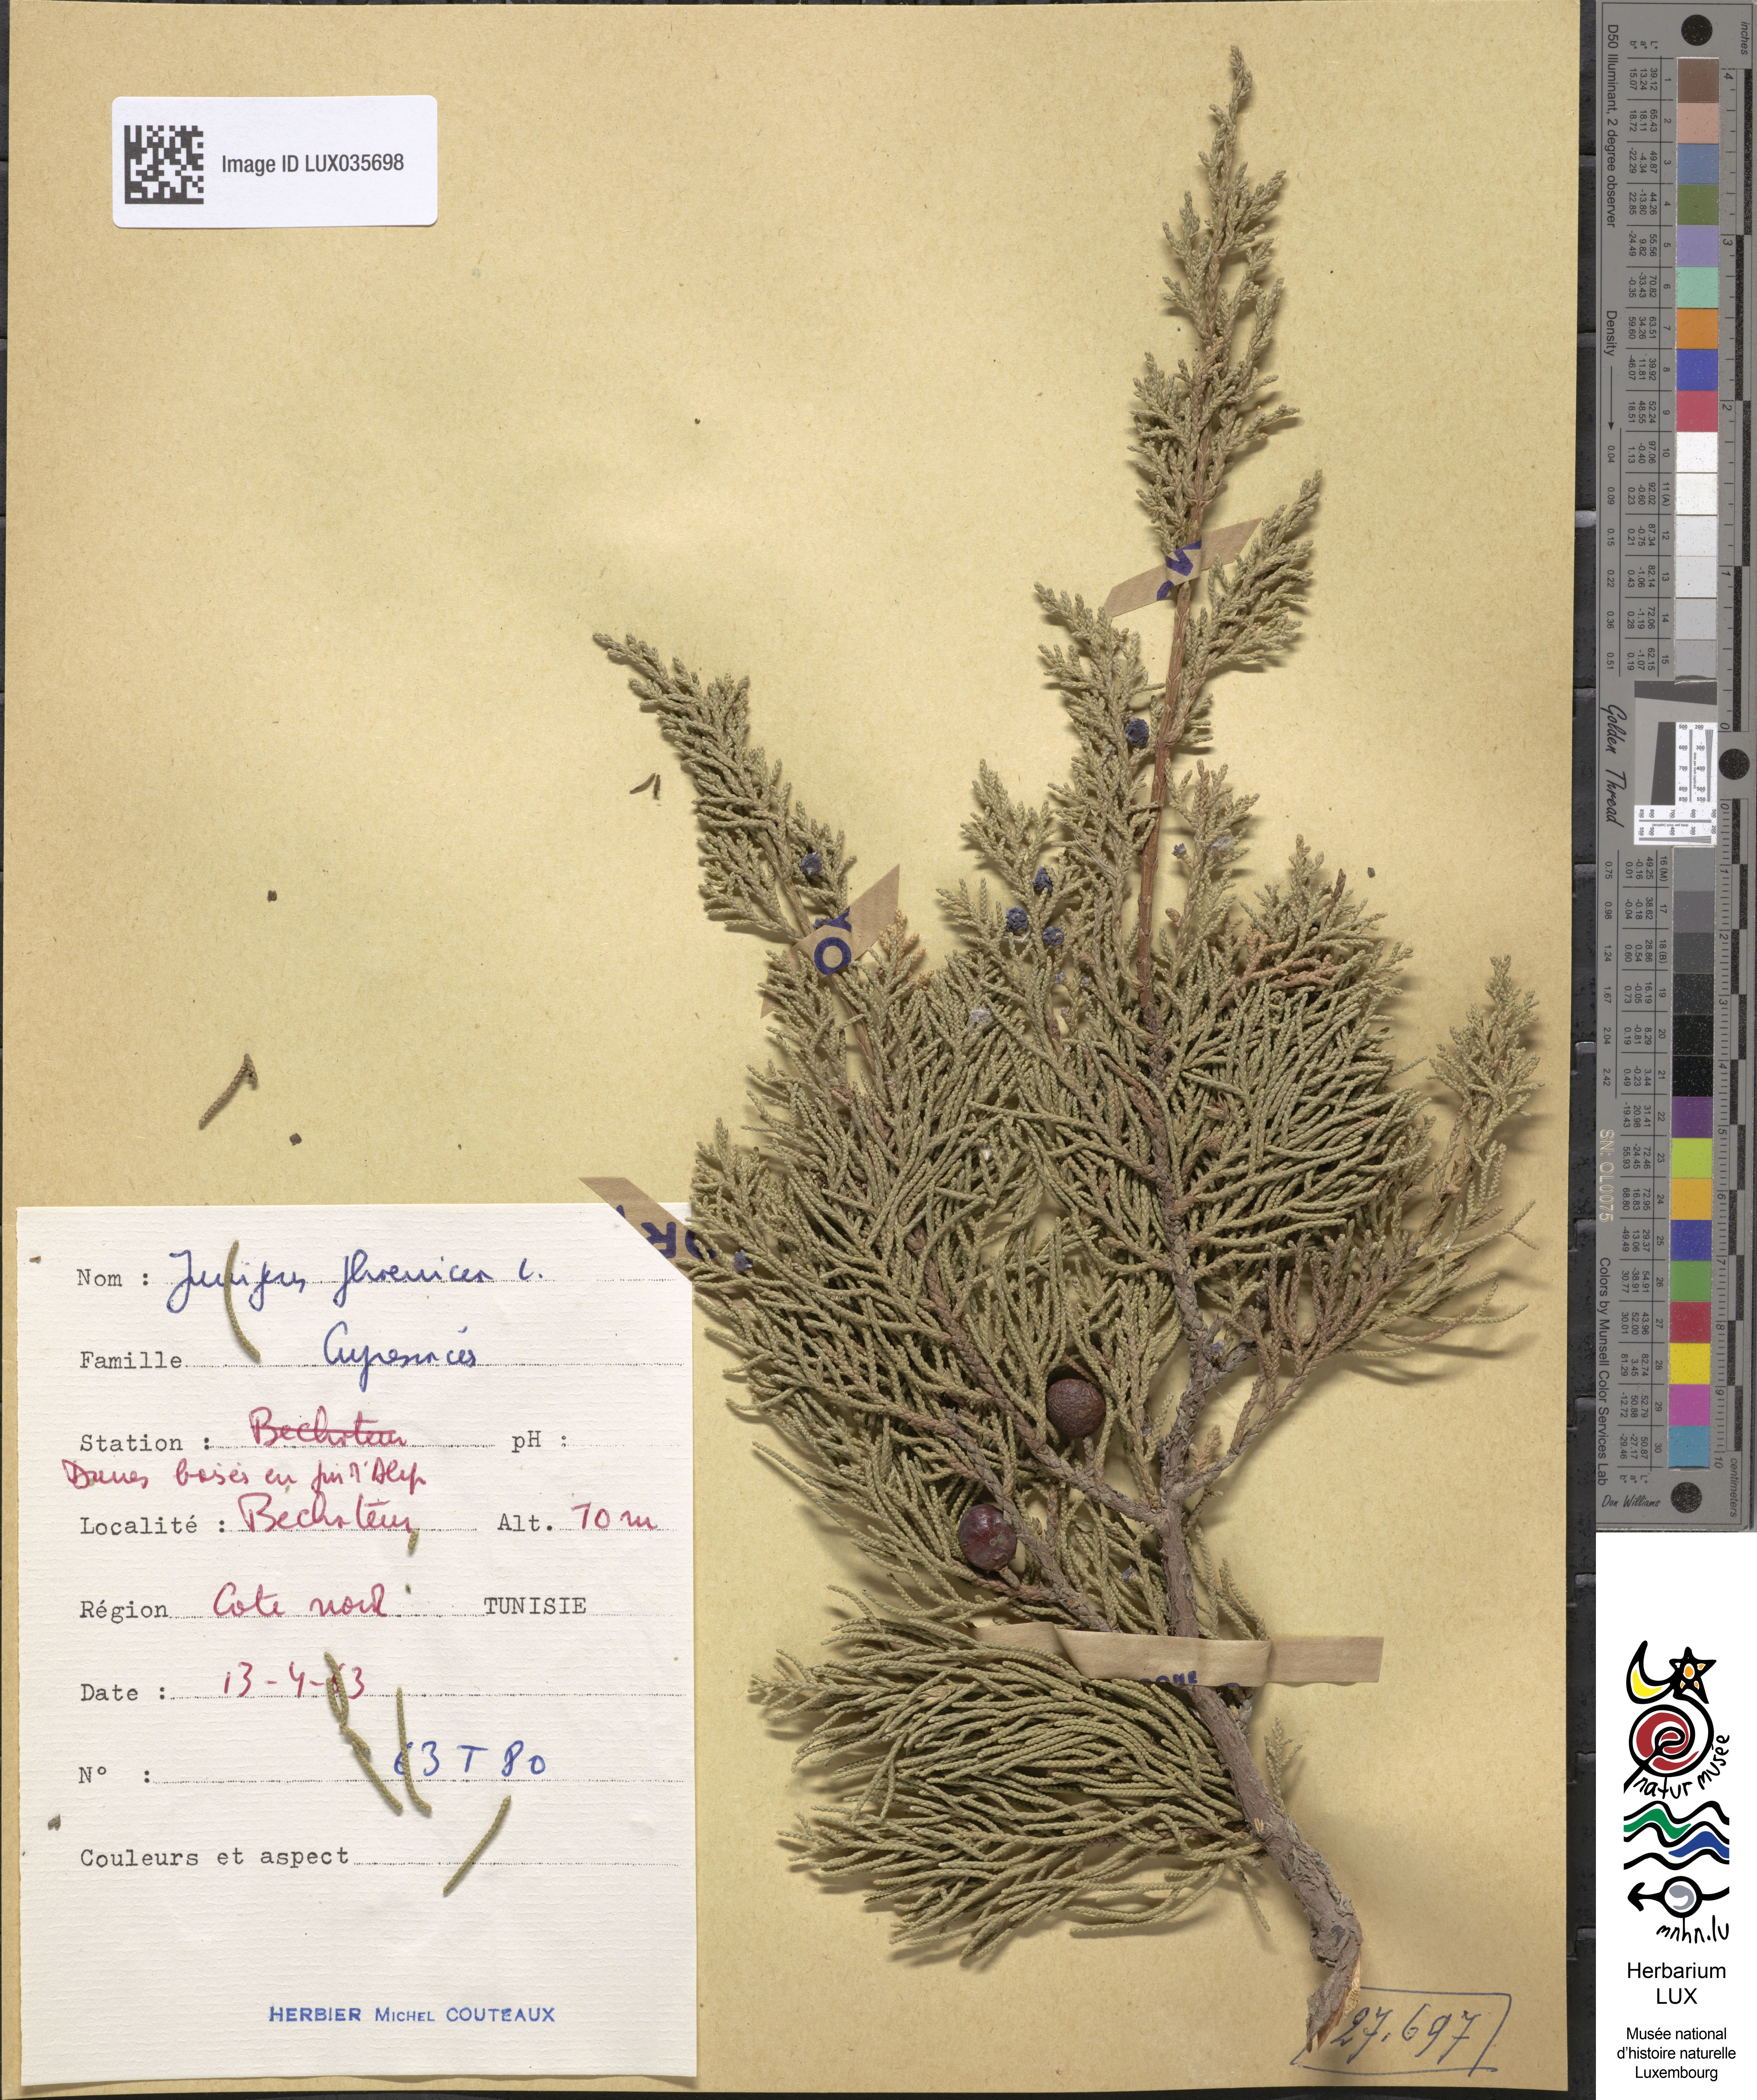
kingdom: Plantae
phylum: Tracheophyta
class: Pinopsida
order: Pinales
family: Cupressaceae
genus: Juniperus
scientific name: Juniperus phoenicea
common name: Phoenician juniper
